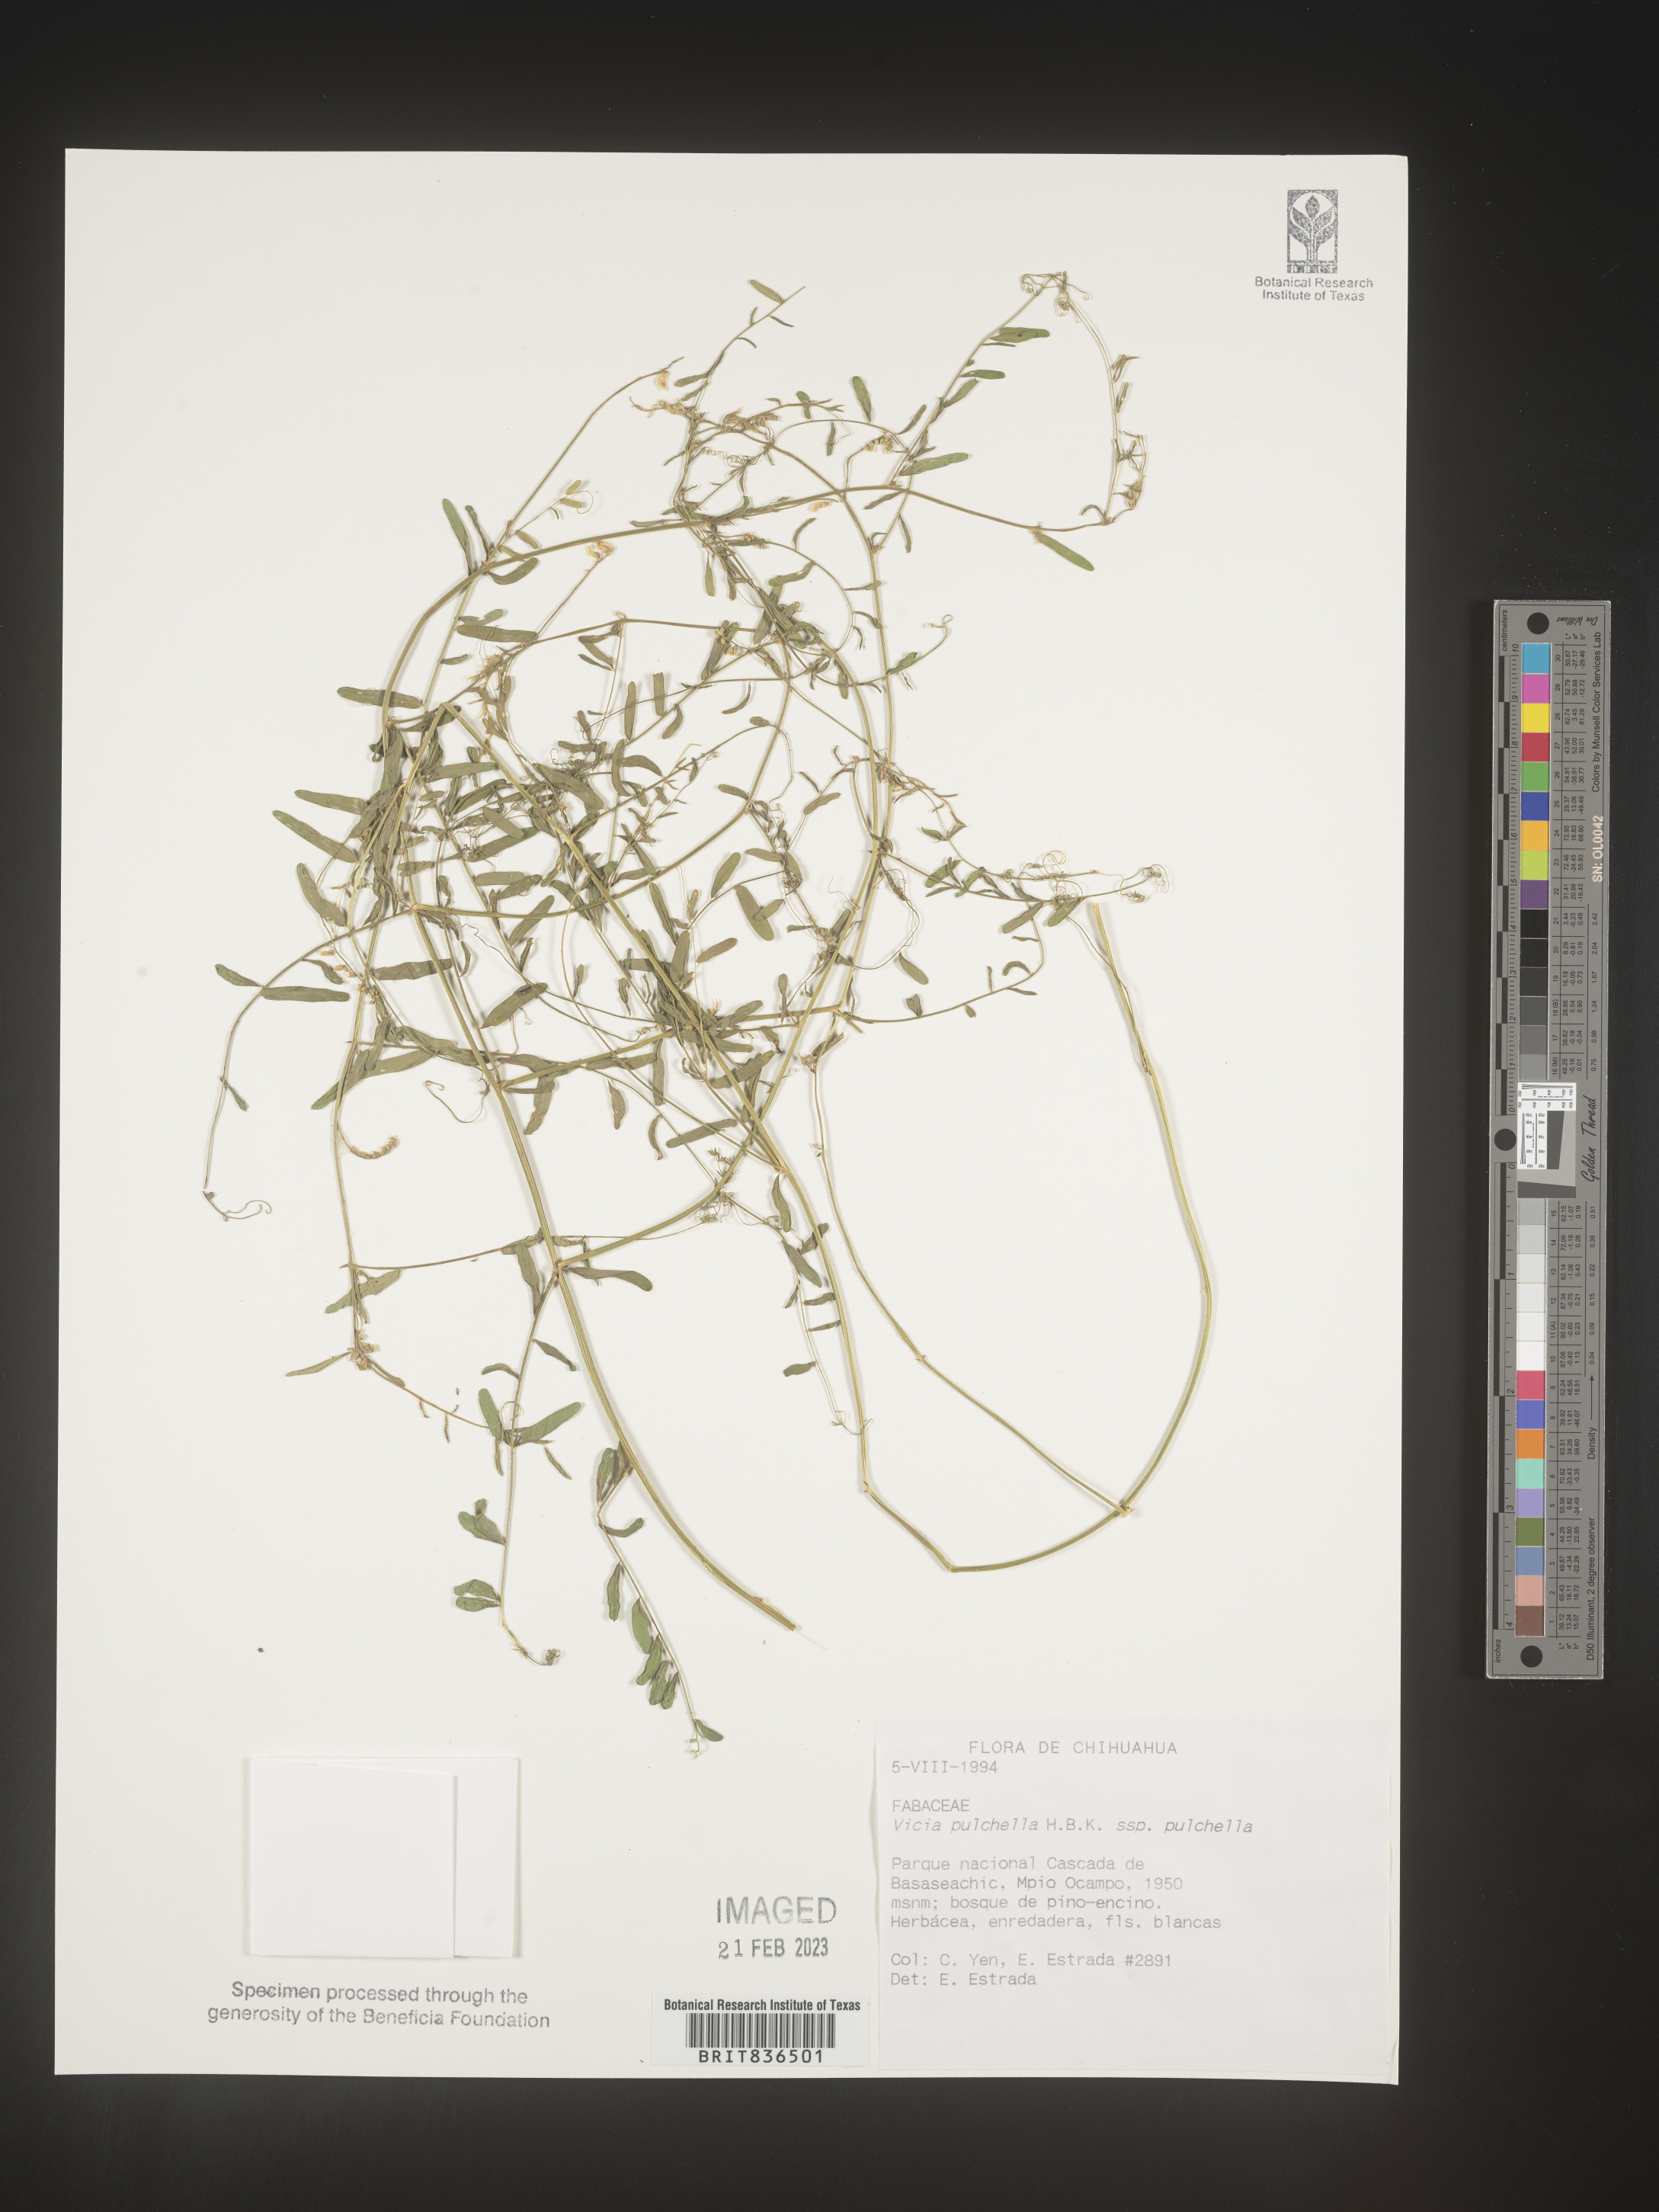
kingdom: Plantae
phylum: Tracheophyta
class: Magnoliopsida
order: Fabales
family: Fabaceae
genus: Vicia
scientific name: Vicia
